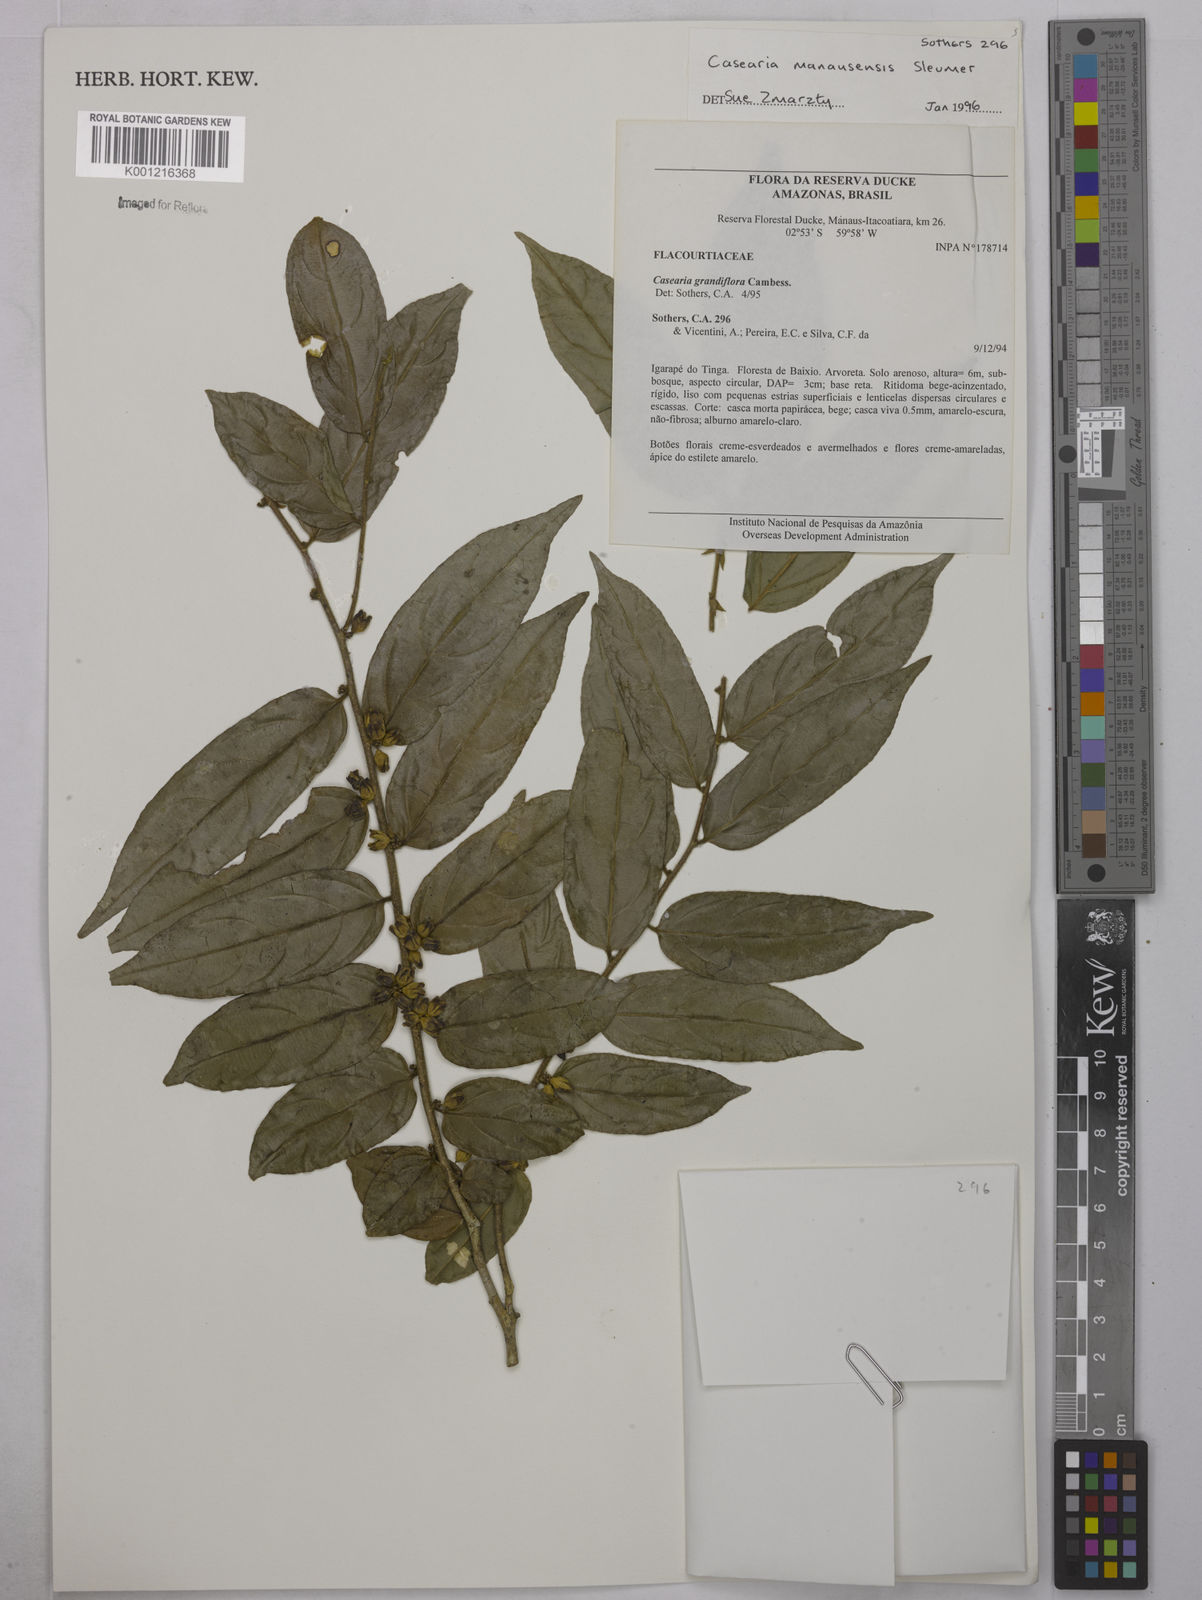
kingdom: Plantae
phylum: Tracheophyta
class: Magnoliopsida
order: Malpighiales
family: Salicaceae
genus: Casearia
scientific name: Casearia manausensis
